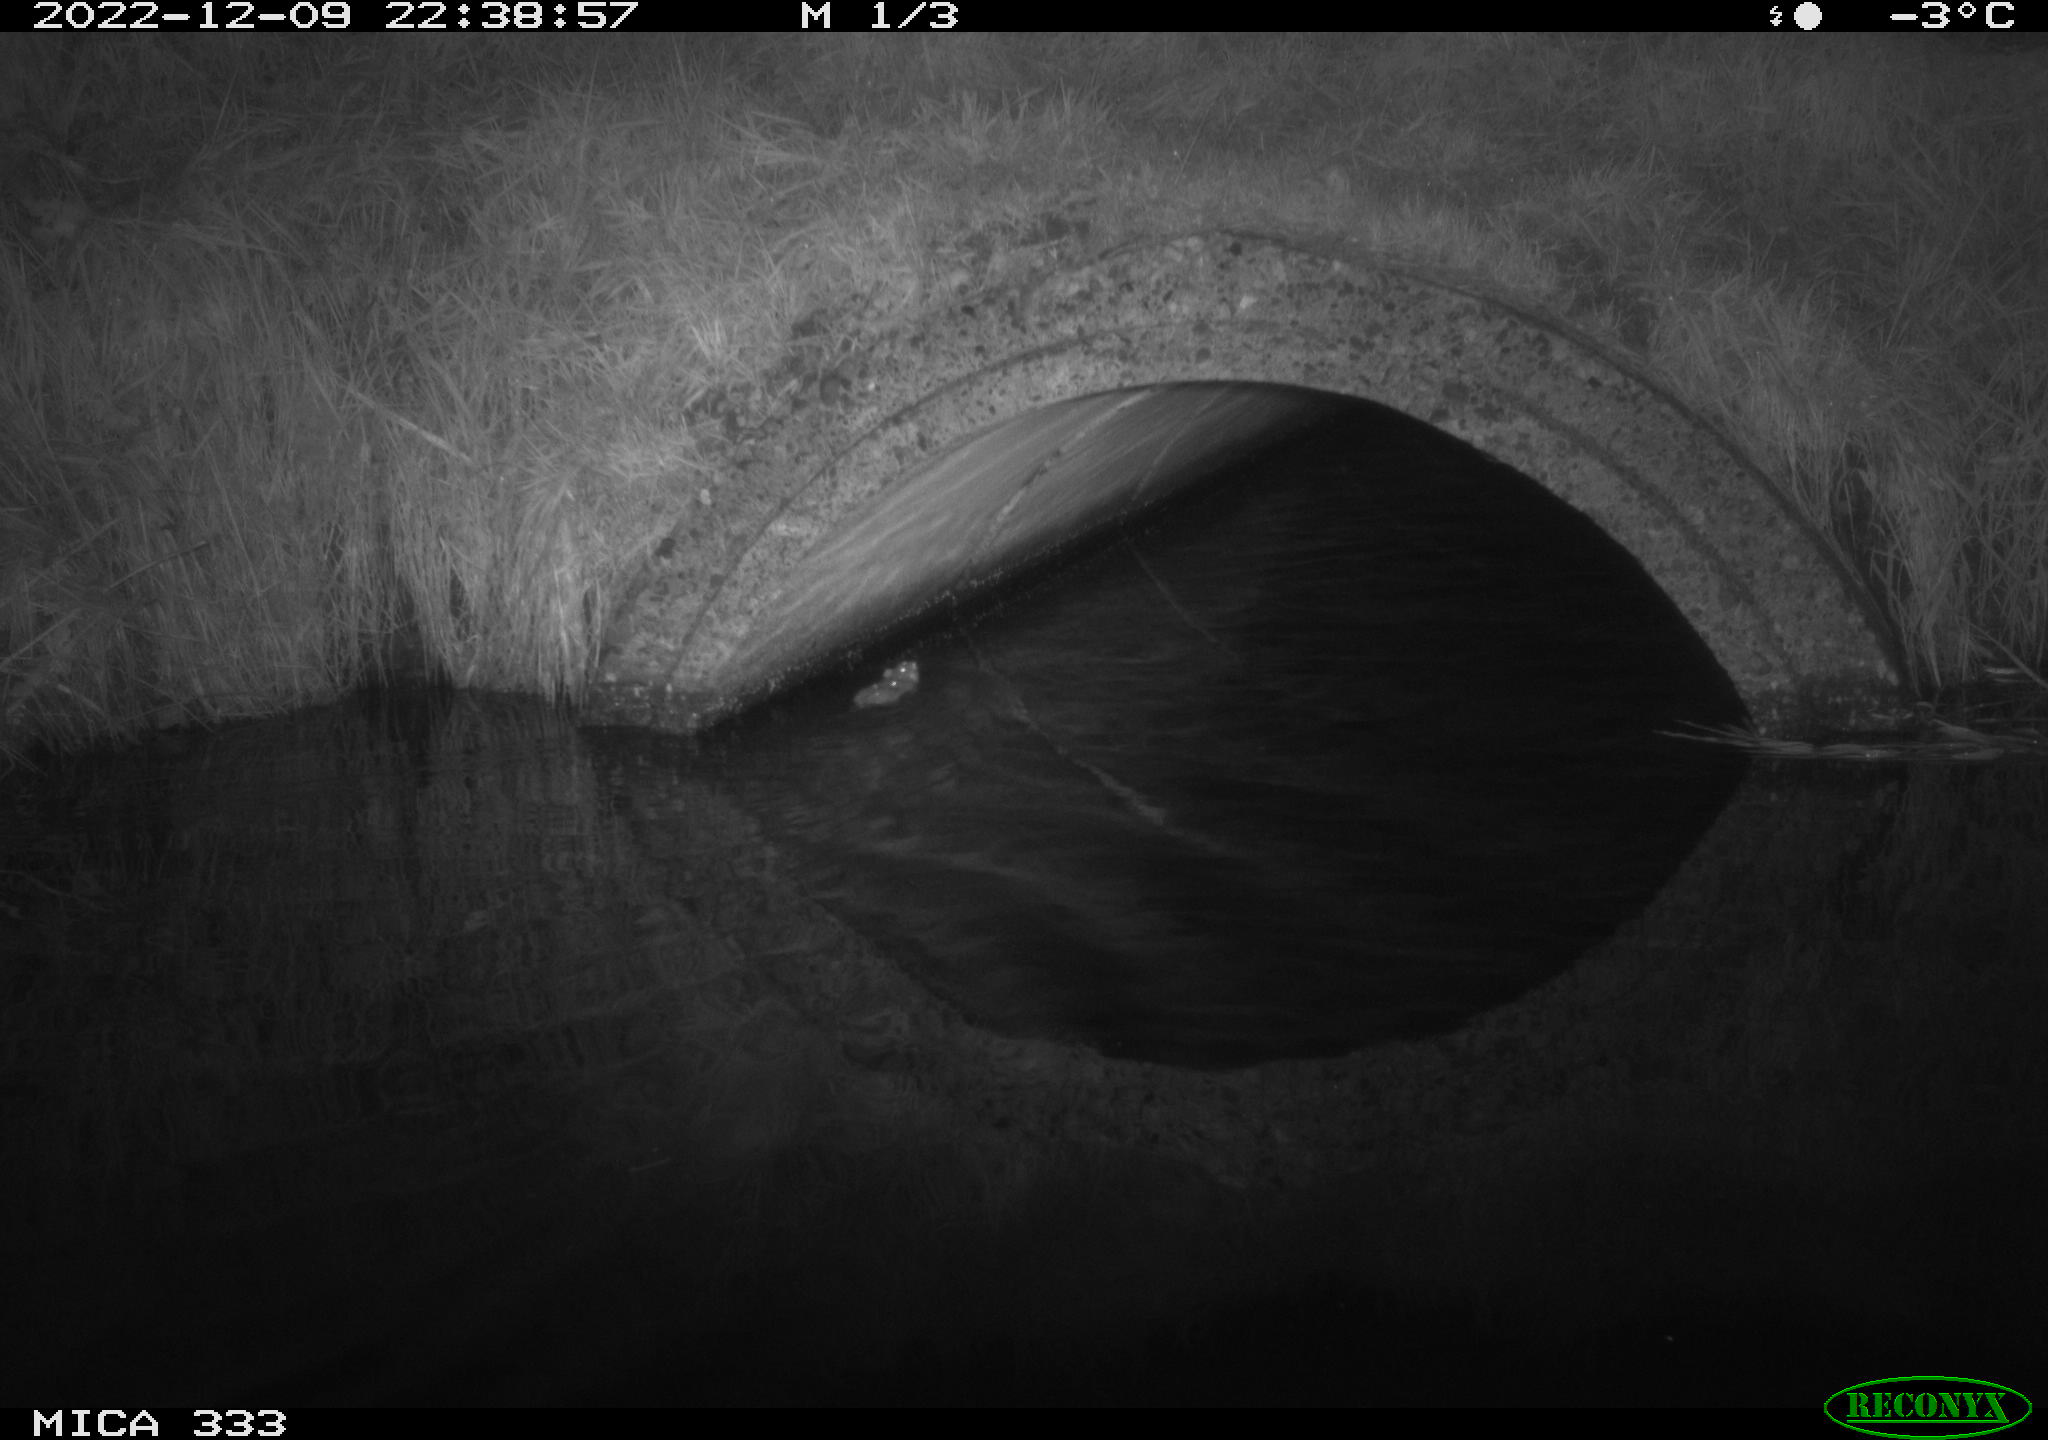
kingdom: Animalia
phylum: Chordata
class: Mammalia
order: Rodentia
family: Muridae
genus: Rattus
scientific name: Rattus norvegicus
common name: Brown rat
